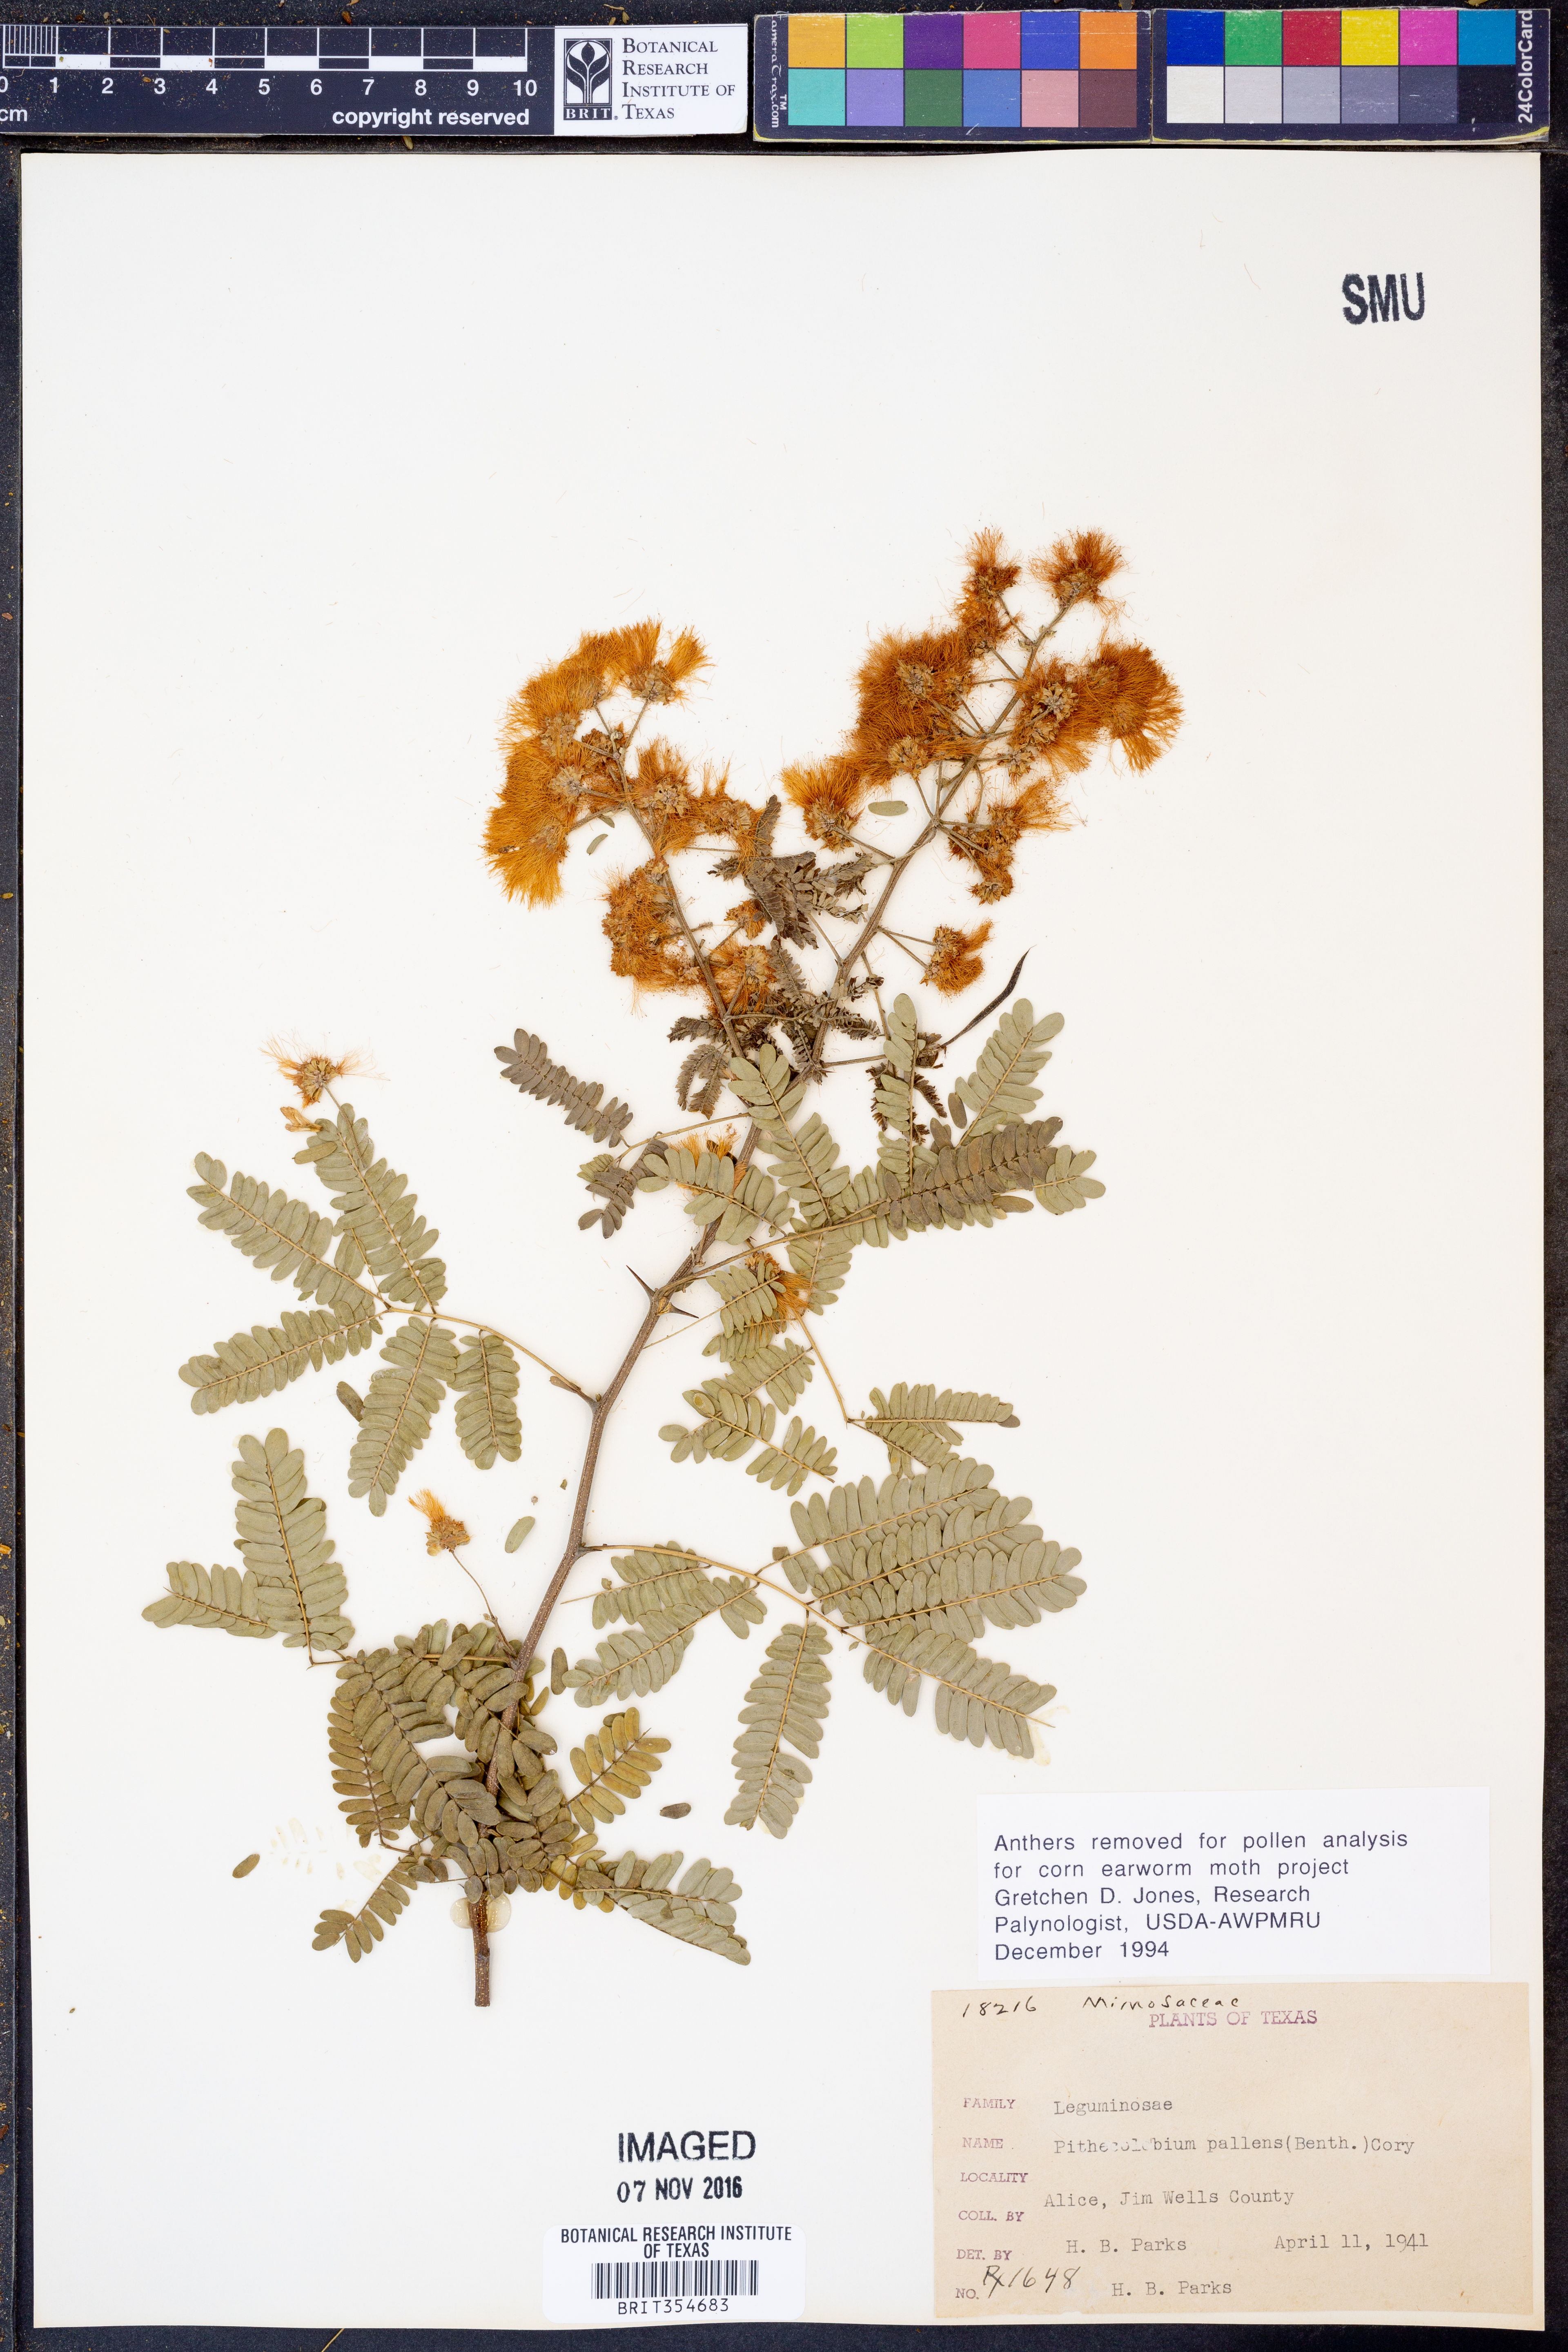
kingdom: Plantae
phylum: Tracheophyta
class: Magnoliopsida
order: Fabales
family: Fabaceae
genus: Havardia
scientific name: Havardia pallens
